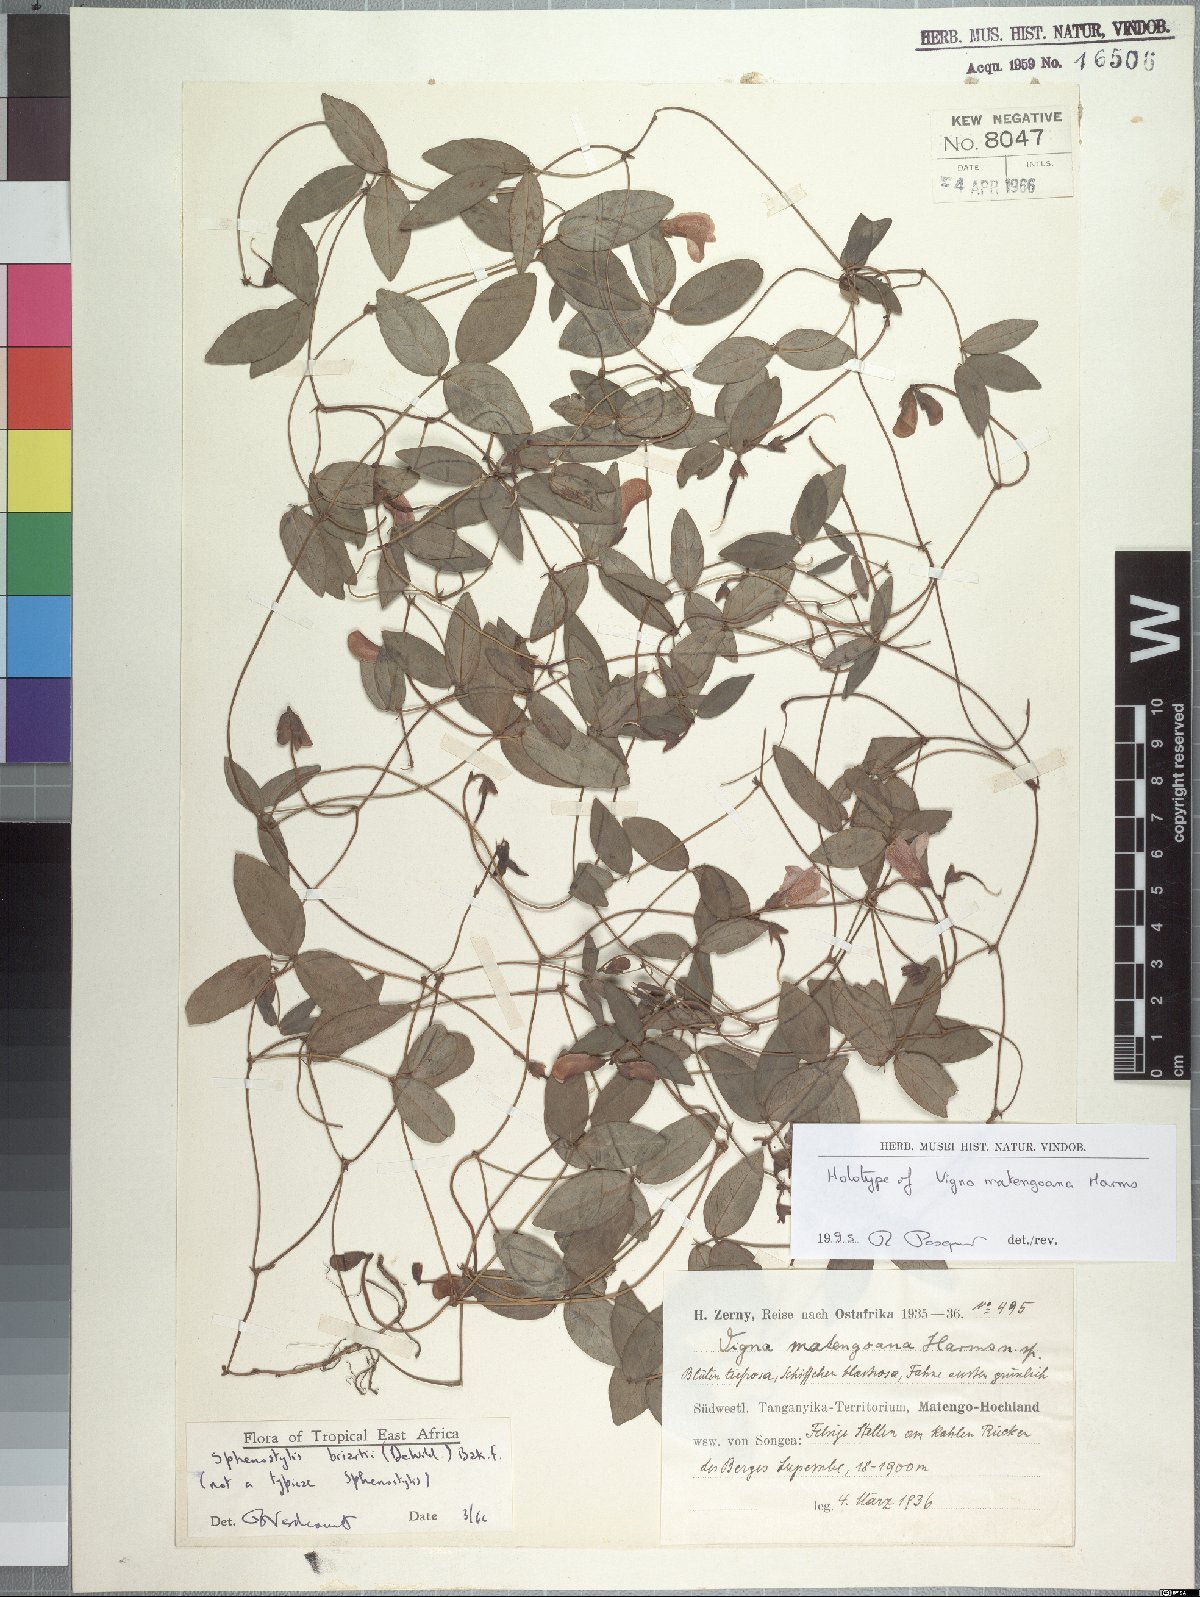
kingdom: Plantae
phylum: Tracheophyta
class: Magnoliopsida
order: Fabales
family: Fabaceae
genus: Sphenostylis
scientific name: Sphenostylis briartii
